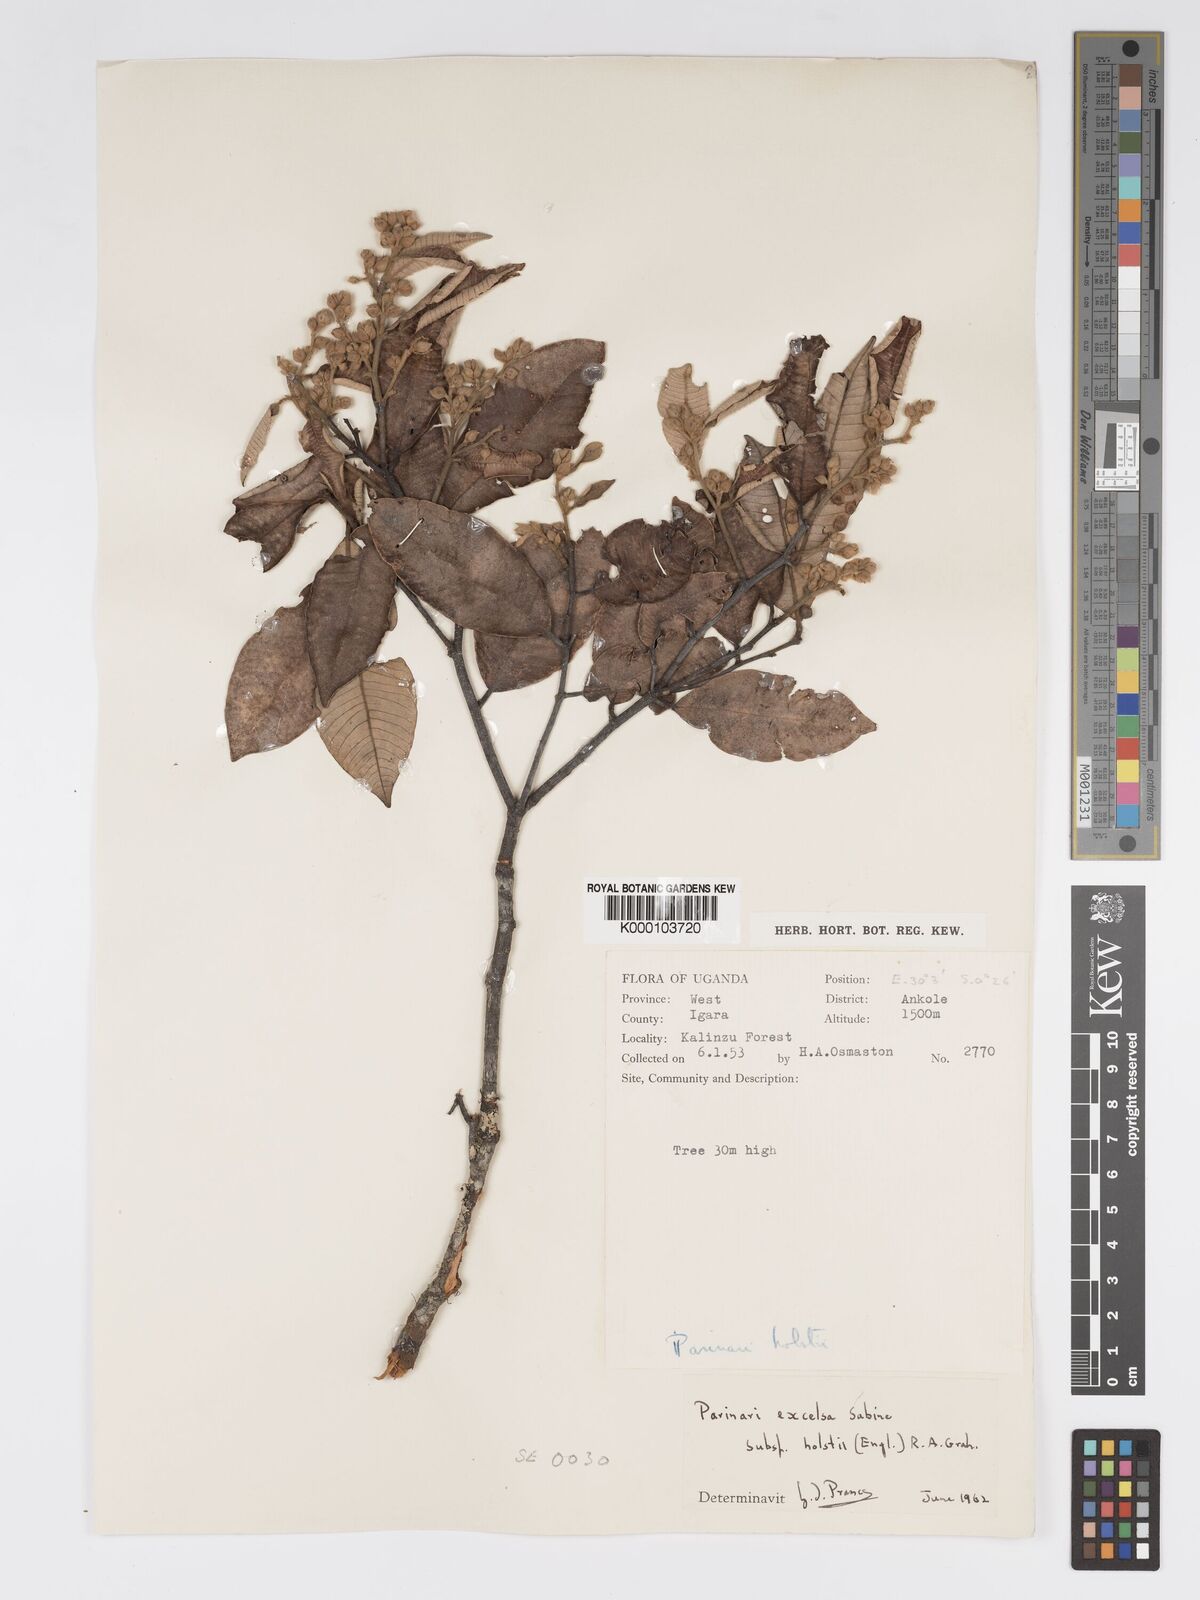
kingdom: Plantae
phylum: Tracheophyta
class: Magnoliopsida
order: Malpighiales
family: Chrysobalanaceae
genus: Parinari
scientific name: Parinari excelsa
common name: Guinea-plum
